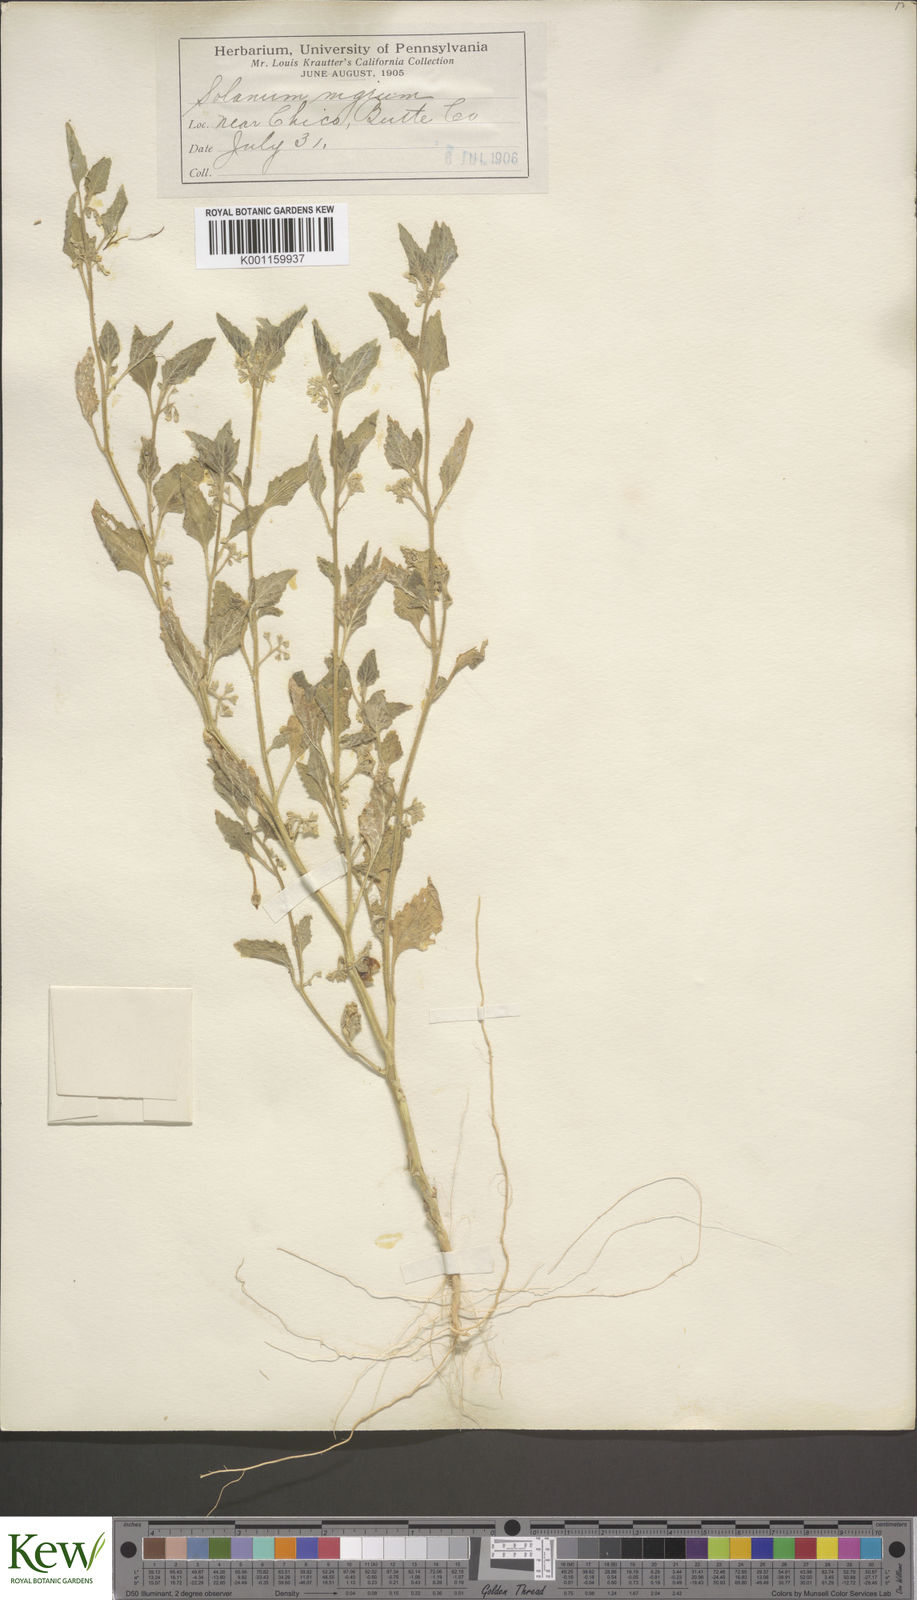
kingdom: Plantae
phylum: Tracheophyta
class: Magnoliopsida
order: Solanales
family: Solanaceae
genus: Solanum
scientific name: Solanum nitidibaccatum
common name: Hairy nightshade
